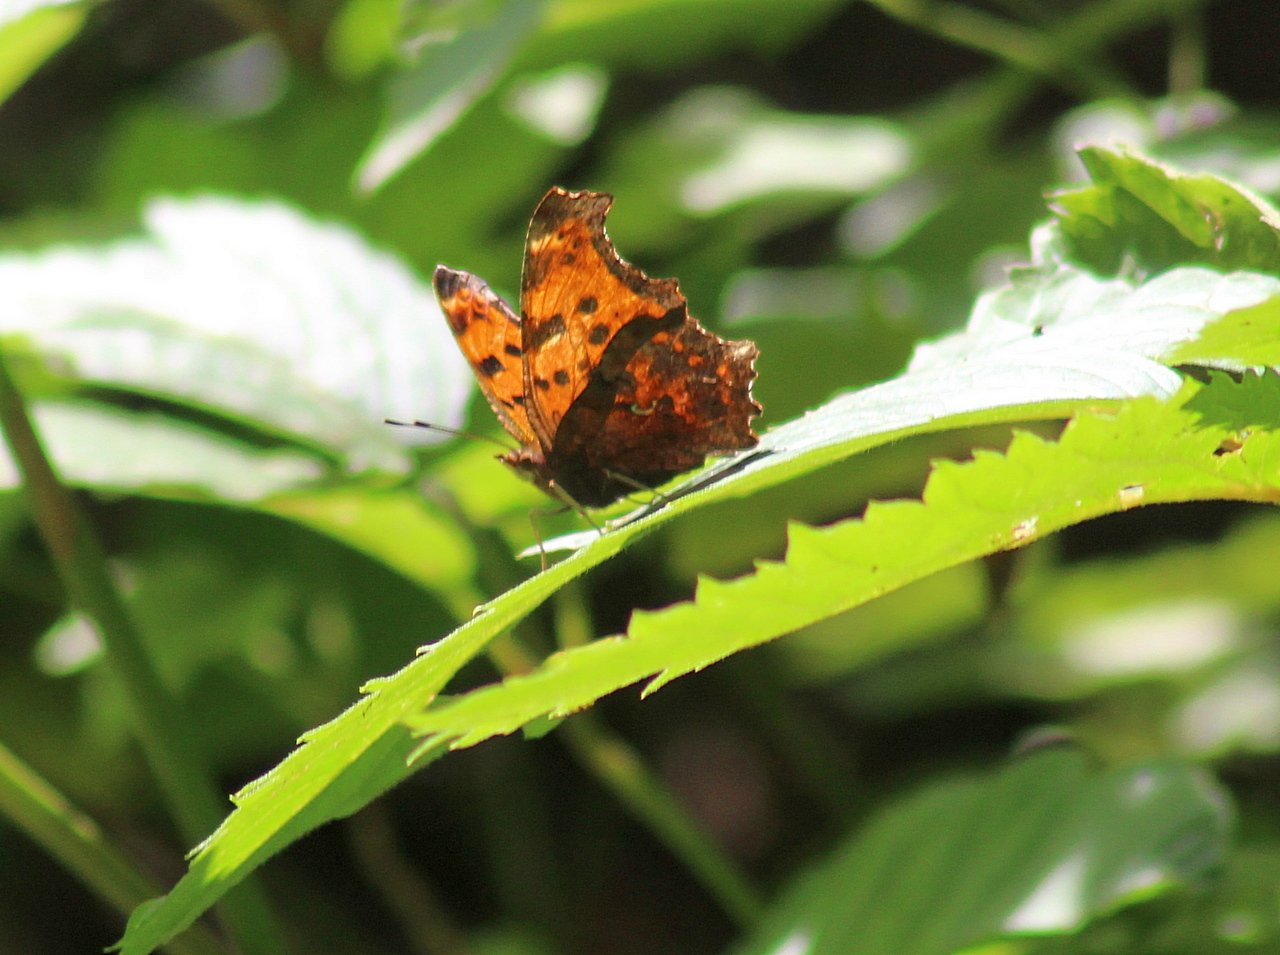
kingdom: Animalia
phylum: Arthropoda
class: Insecta
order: Lepidoptera
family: Nymphalidae
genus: Polygonia
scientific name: Polygonia comma
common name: Eastern Comma
